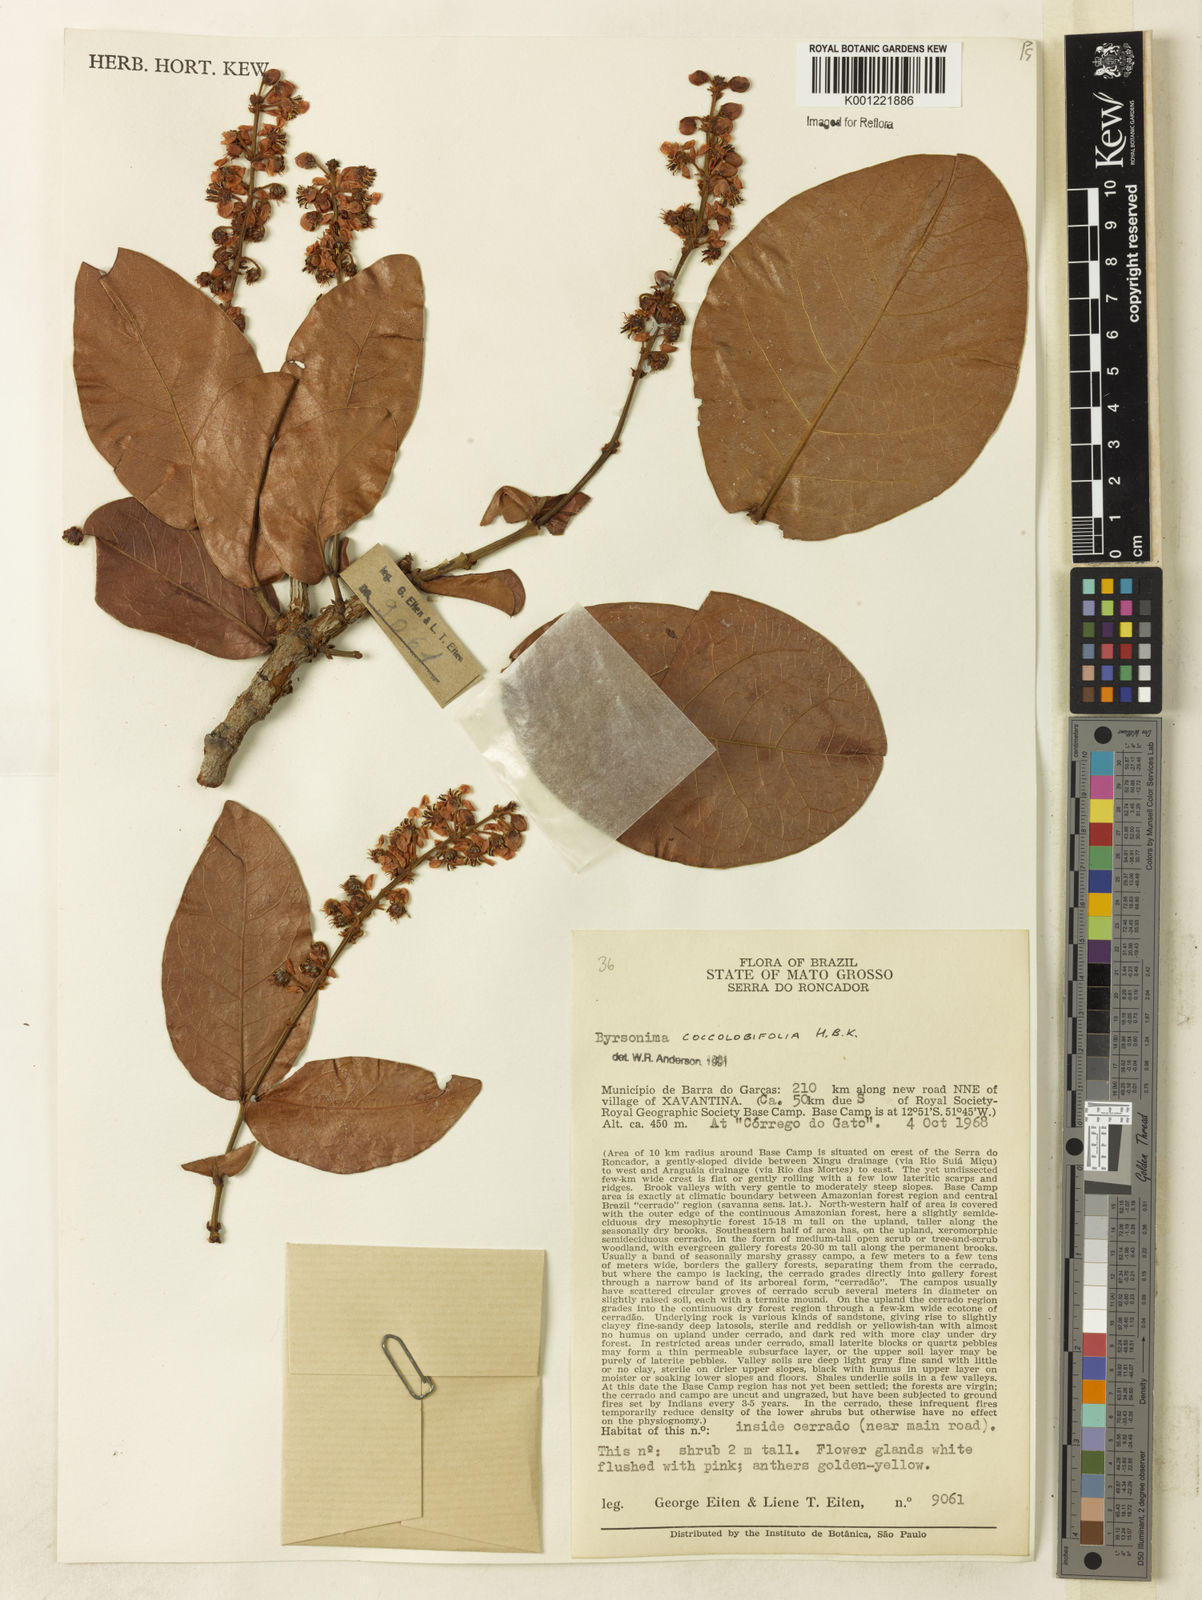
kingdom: Plantae
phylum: Tracheophyta
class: Magnoliopsida
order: Malpighiales
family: Malpighiaceae
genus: Byrsonima
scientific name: Byrsonima coccolobifolia
